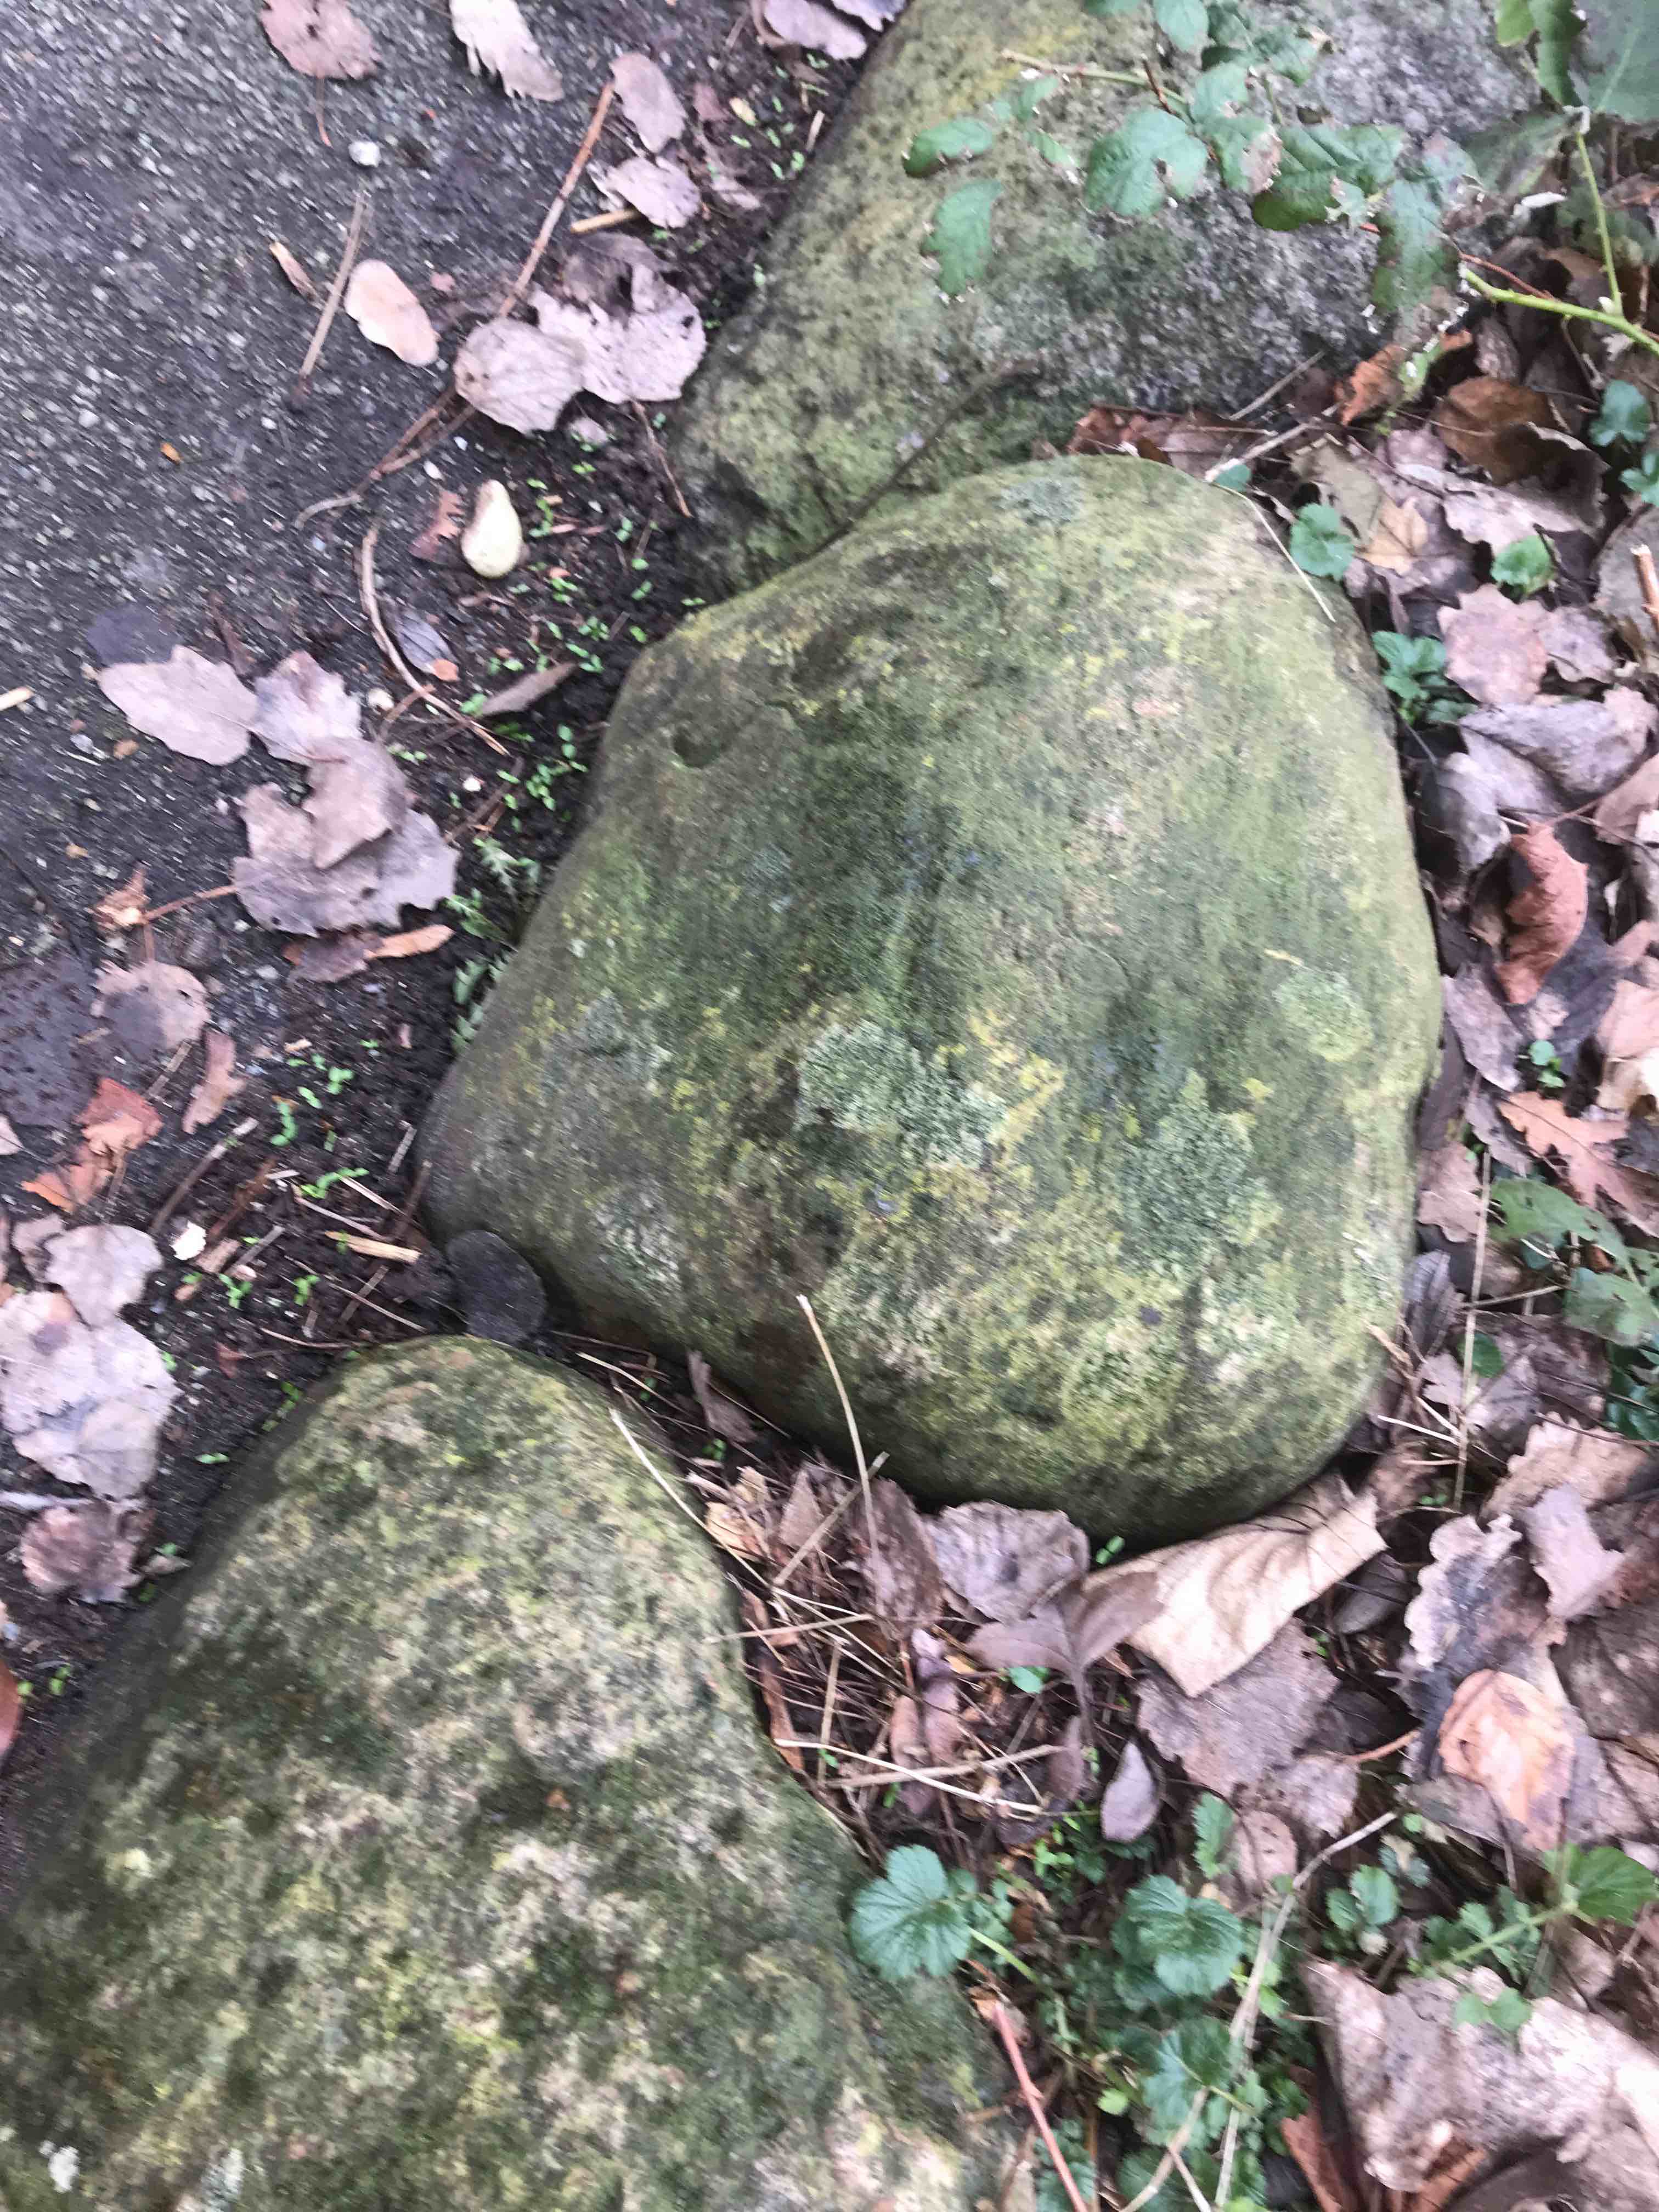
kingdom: Plantae
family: Lecanoromycetidae
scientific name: Lecanoromycetidae
